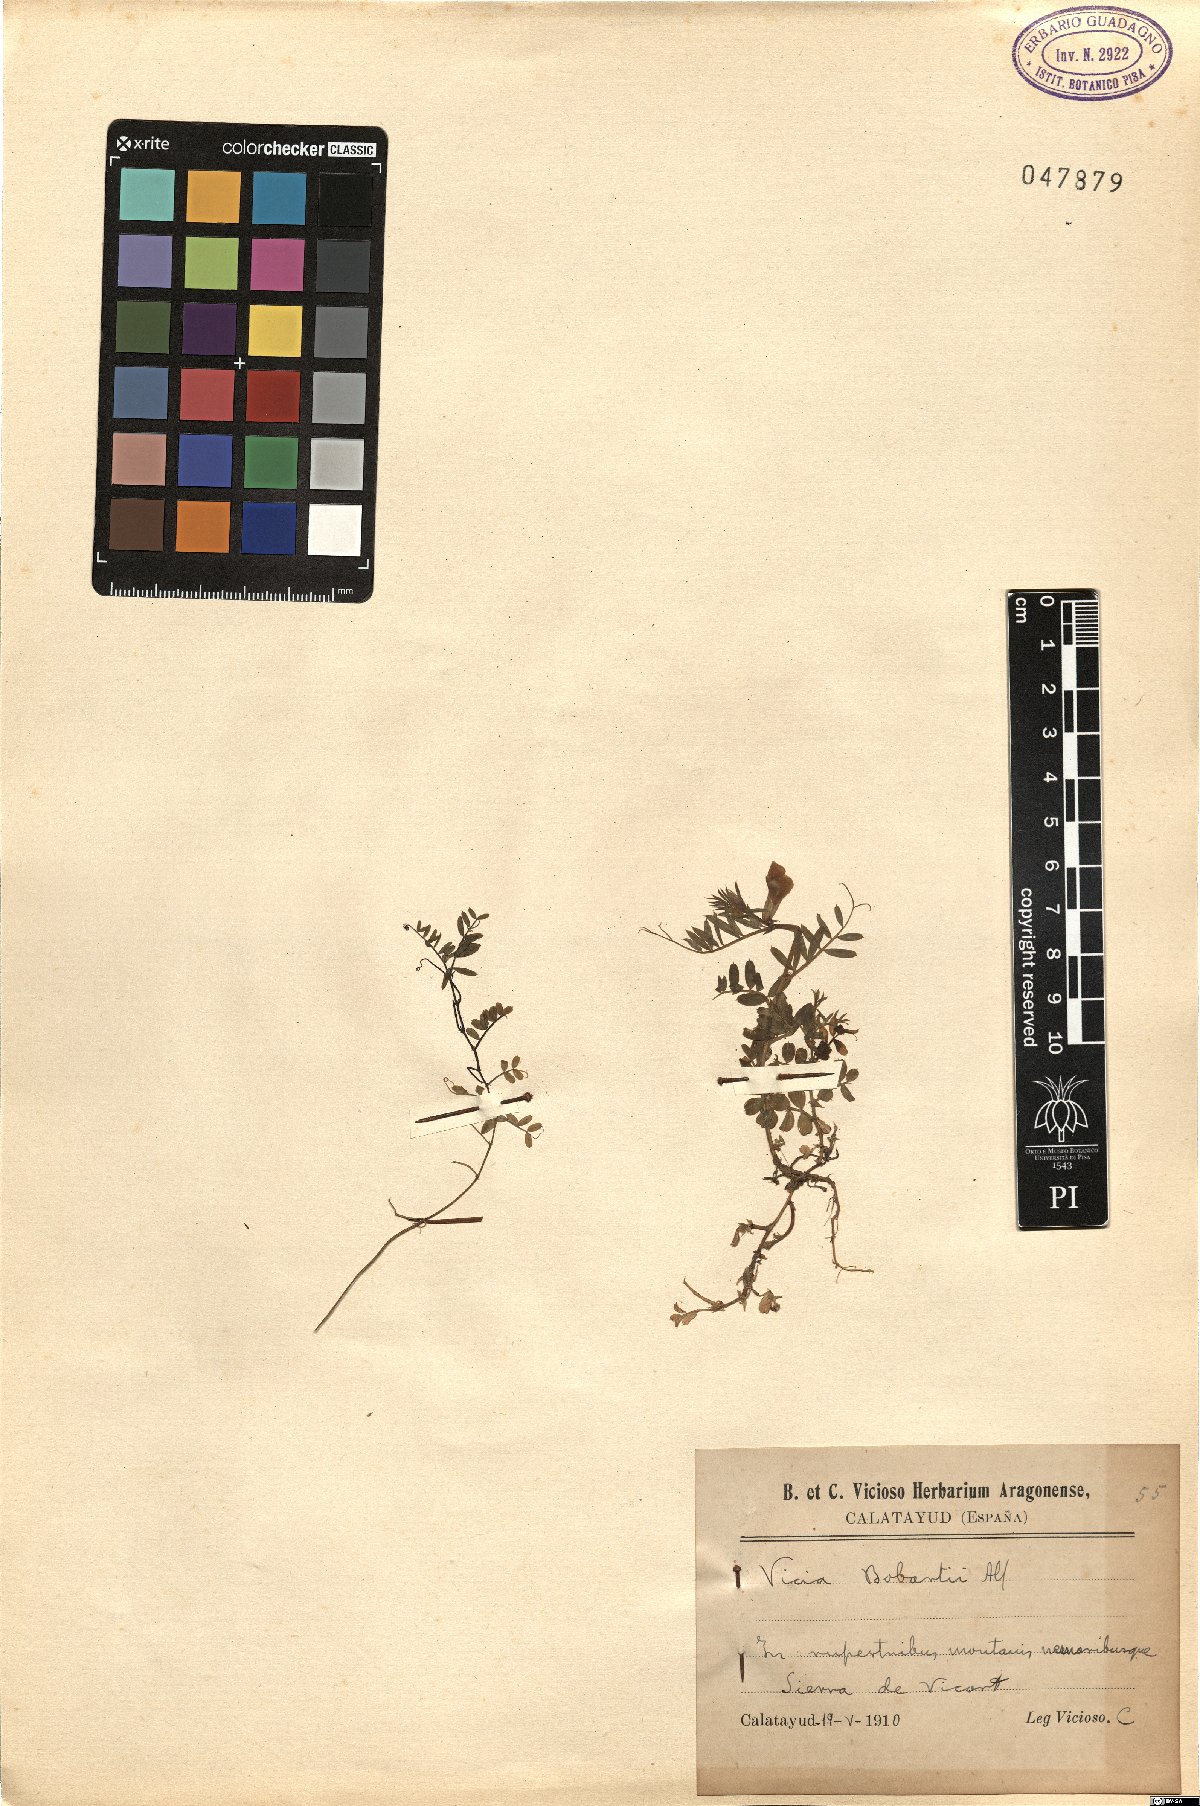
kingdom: Plantae
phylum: Tracheophyta
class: Magnoliopsida
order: Fabales
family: Fabaceae
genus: Vicia
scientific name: Vicia sativa
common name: Garden vetch
